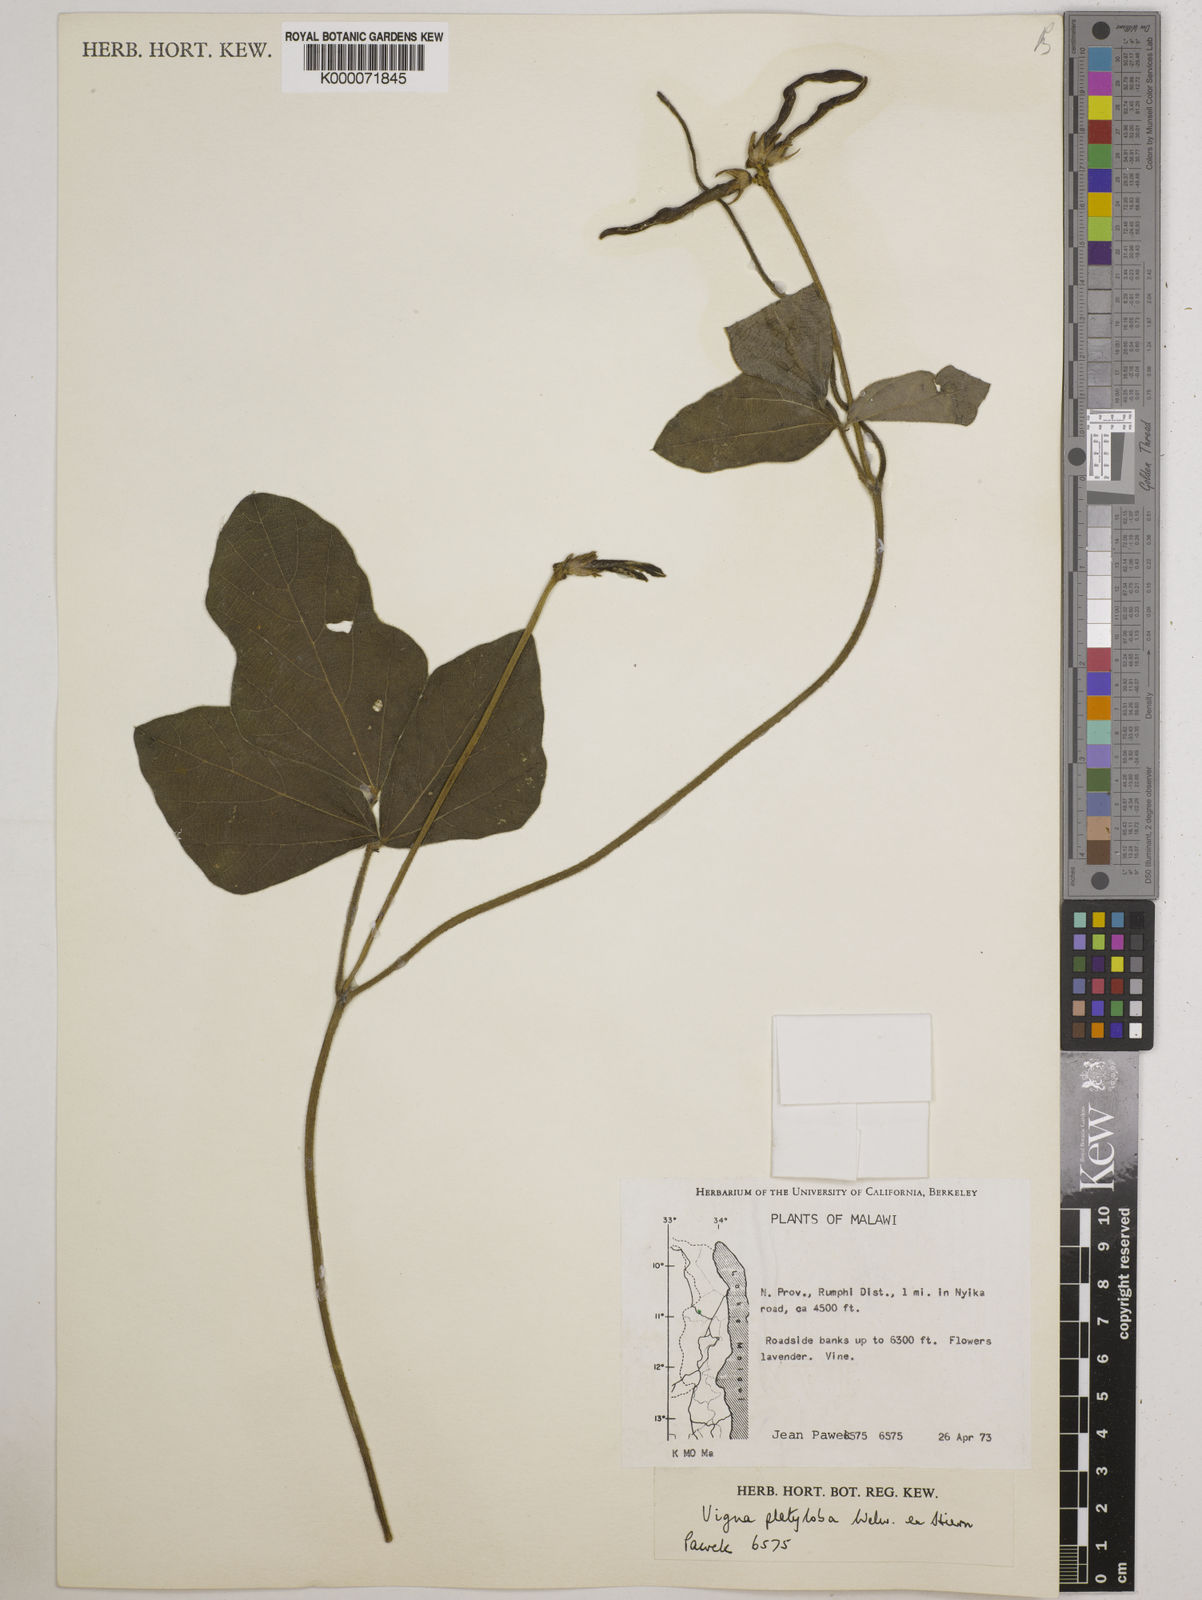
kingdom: Plantae
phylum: Tracheophyta
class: Magnoliopsida
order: Fabales
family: Fabaceae
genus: Vigna
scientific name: Vigna platyloba
